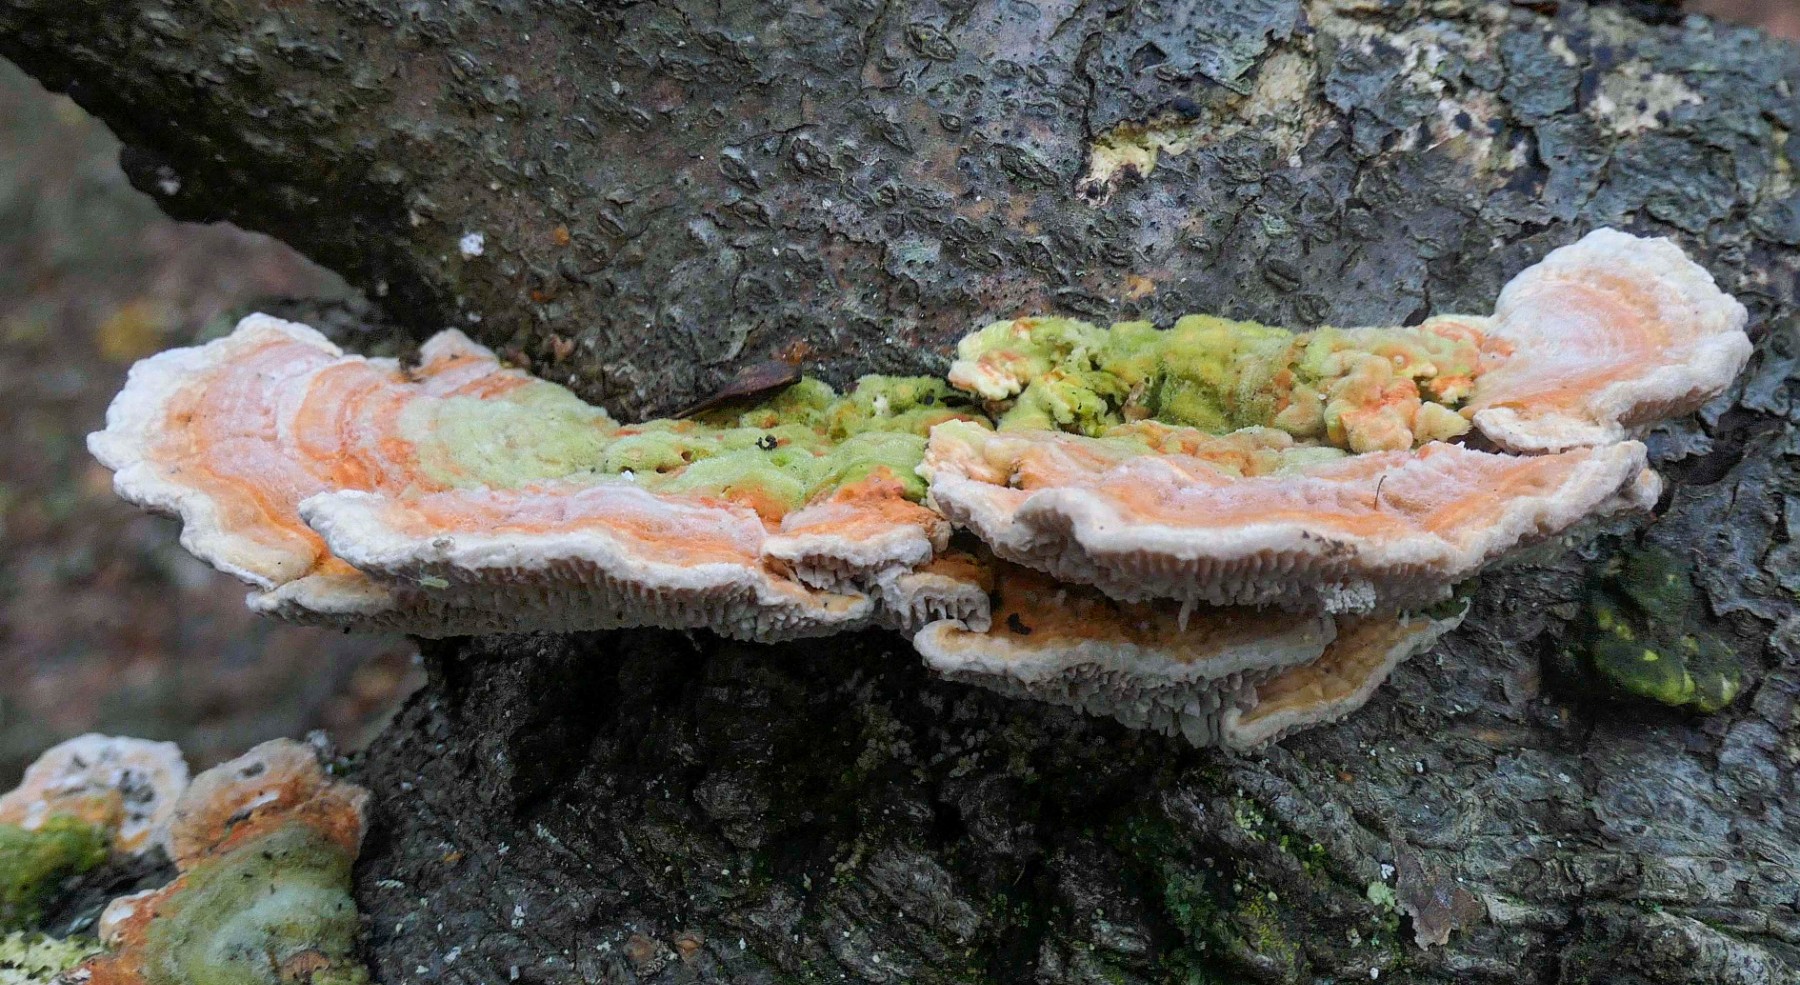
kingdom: Fungi
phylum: Basidiomycota
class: Agaricomycetes
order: Polyporales
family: Polyporaceae
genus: Lenzites
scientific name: Lenzites betulinus
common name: birke-læderporesvamp
